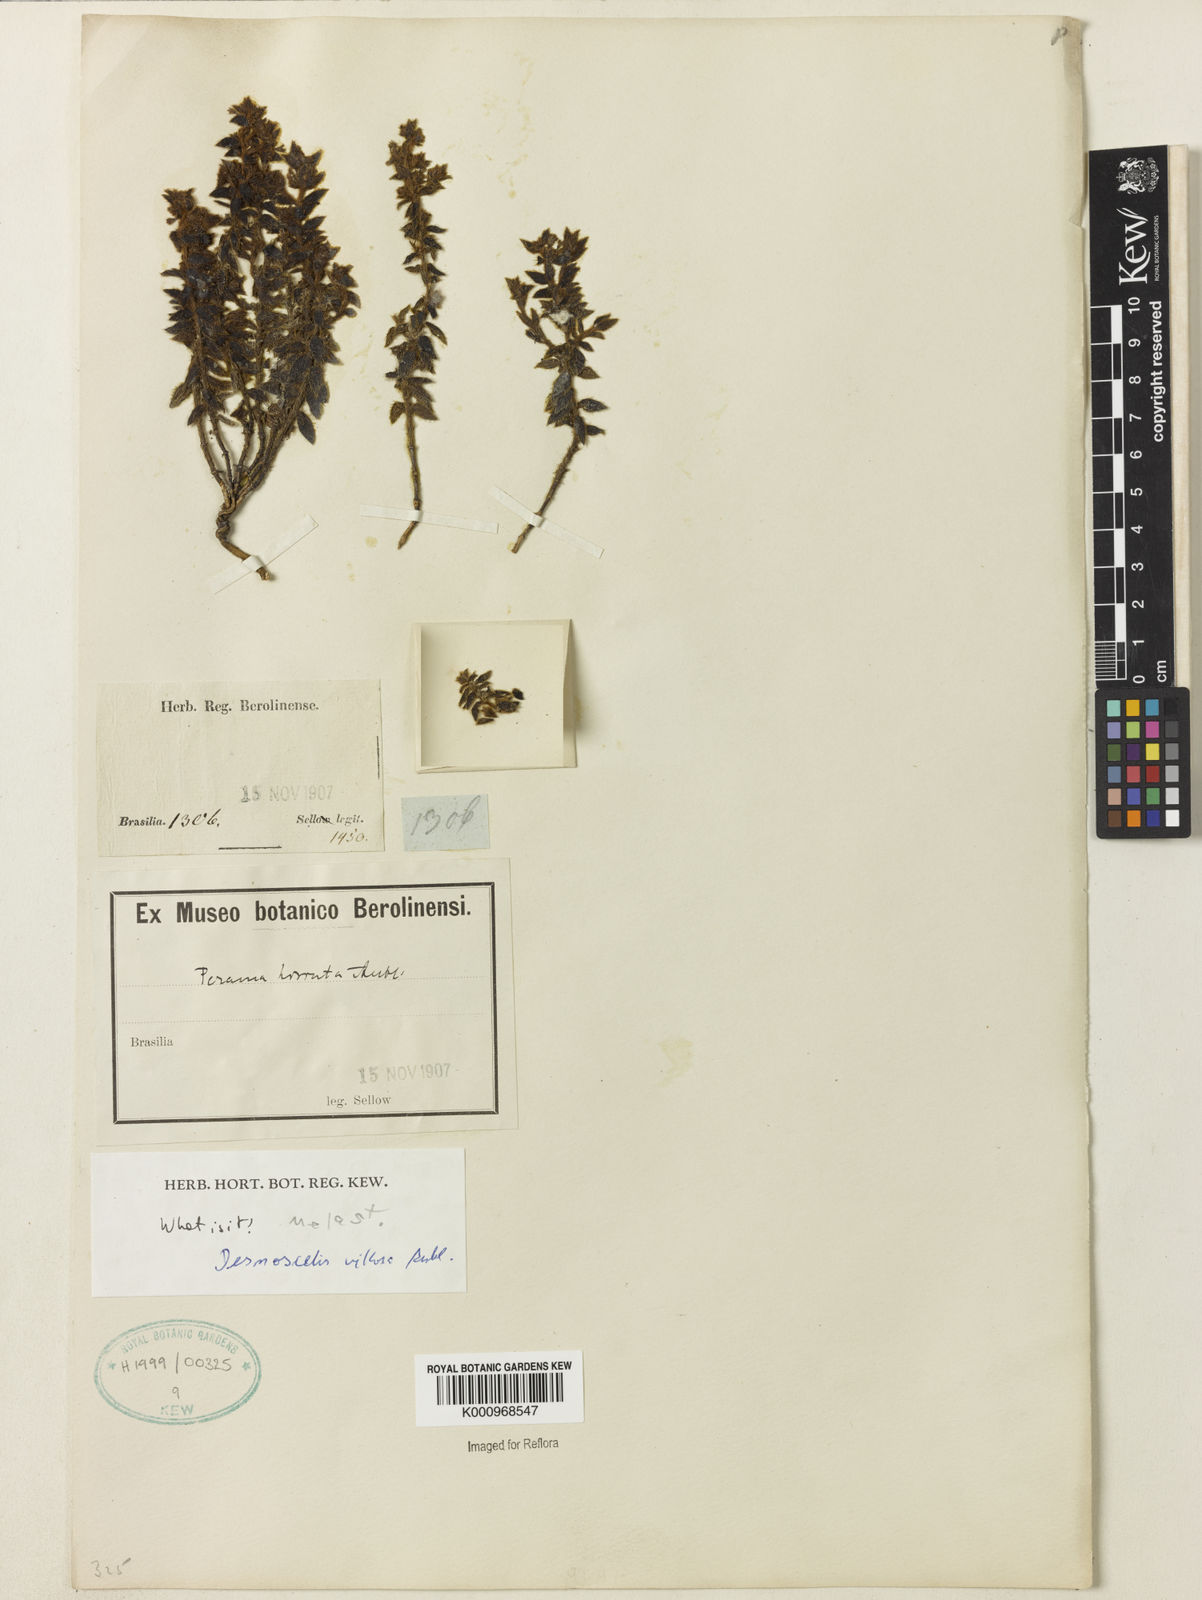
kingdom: Plantae
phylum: Tracheophyta
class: Magnoliopsida
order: Myrtales
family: Melastomataceae
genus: Desmoscelis
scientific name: Desmoscelis villosa
